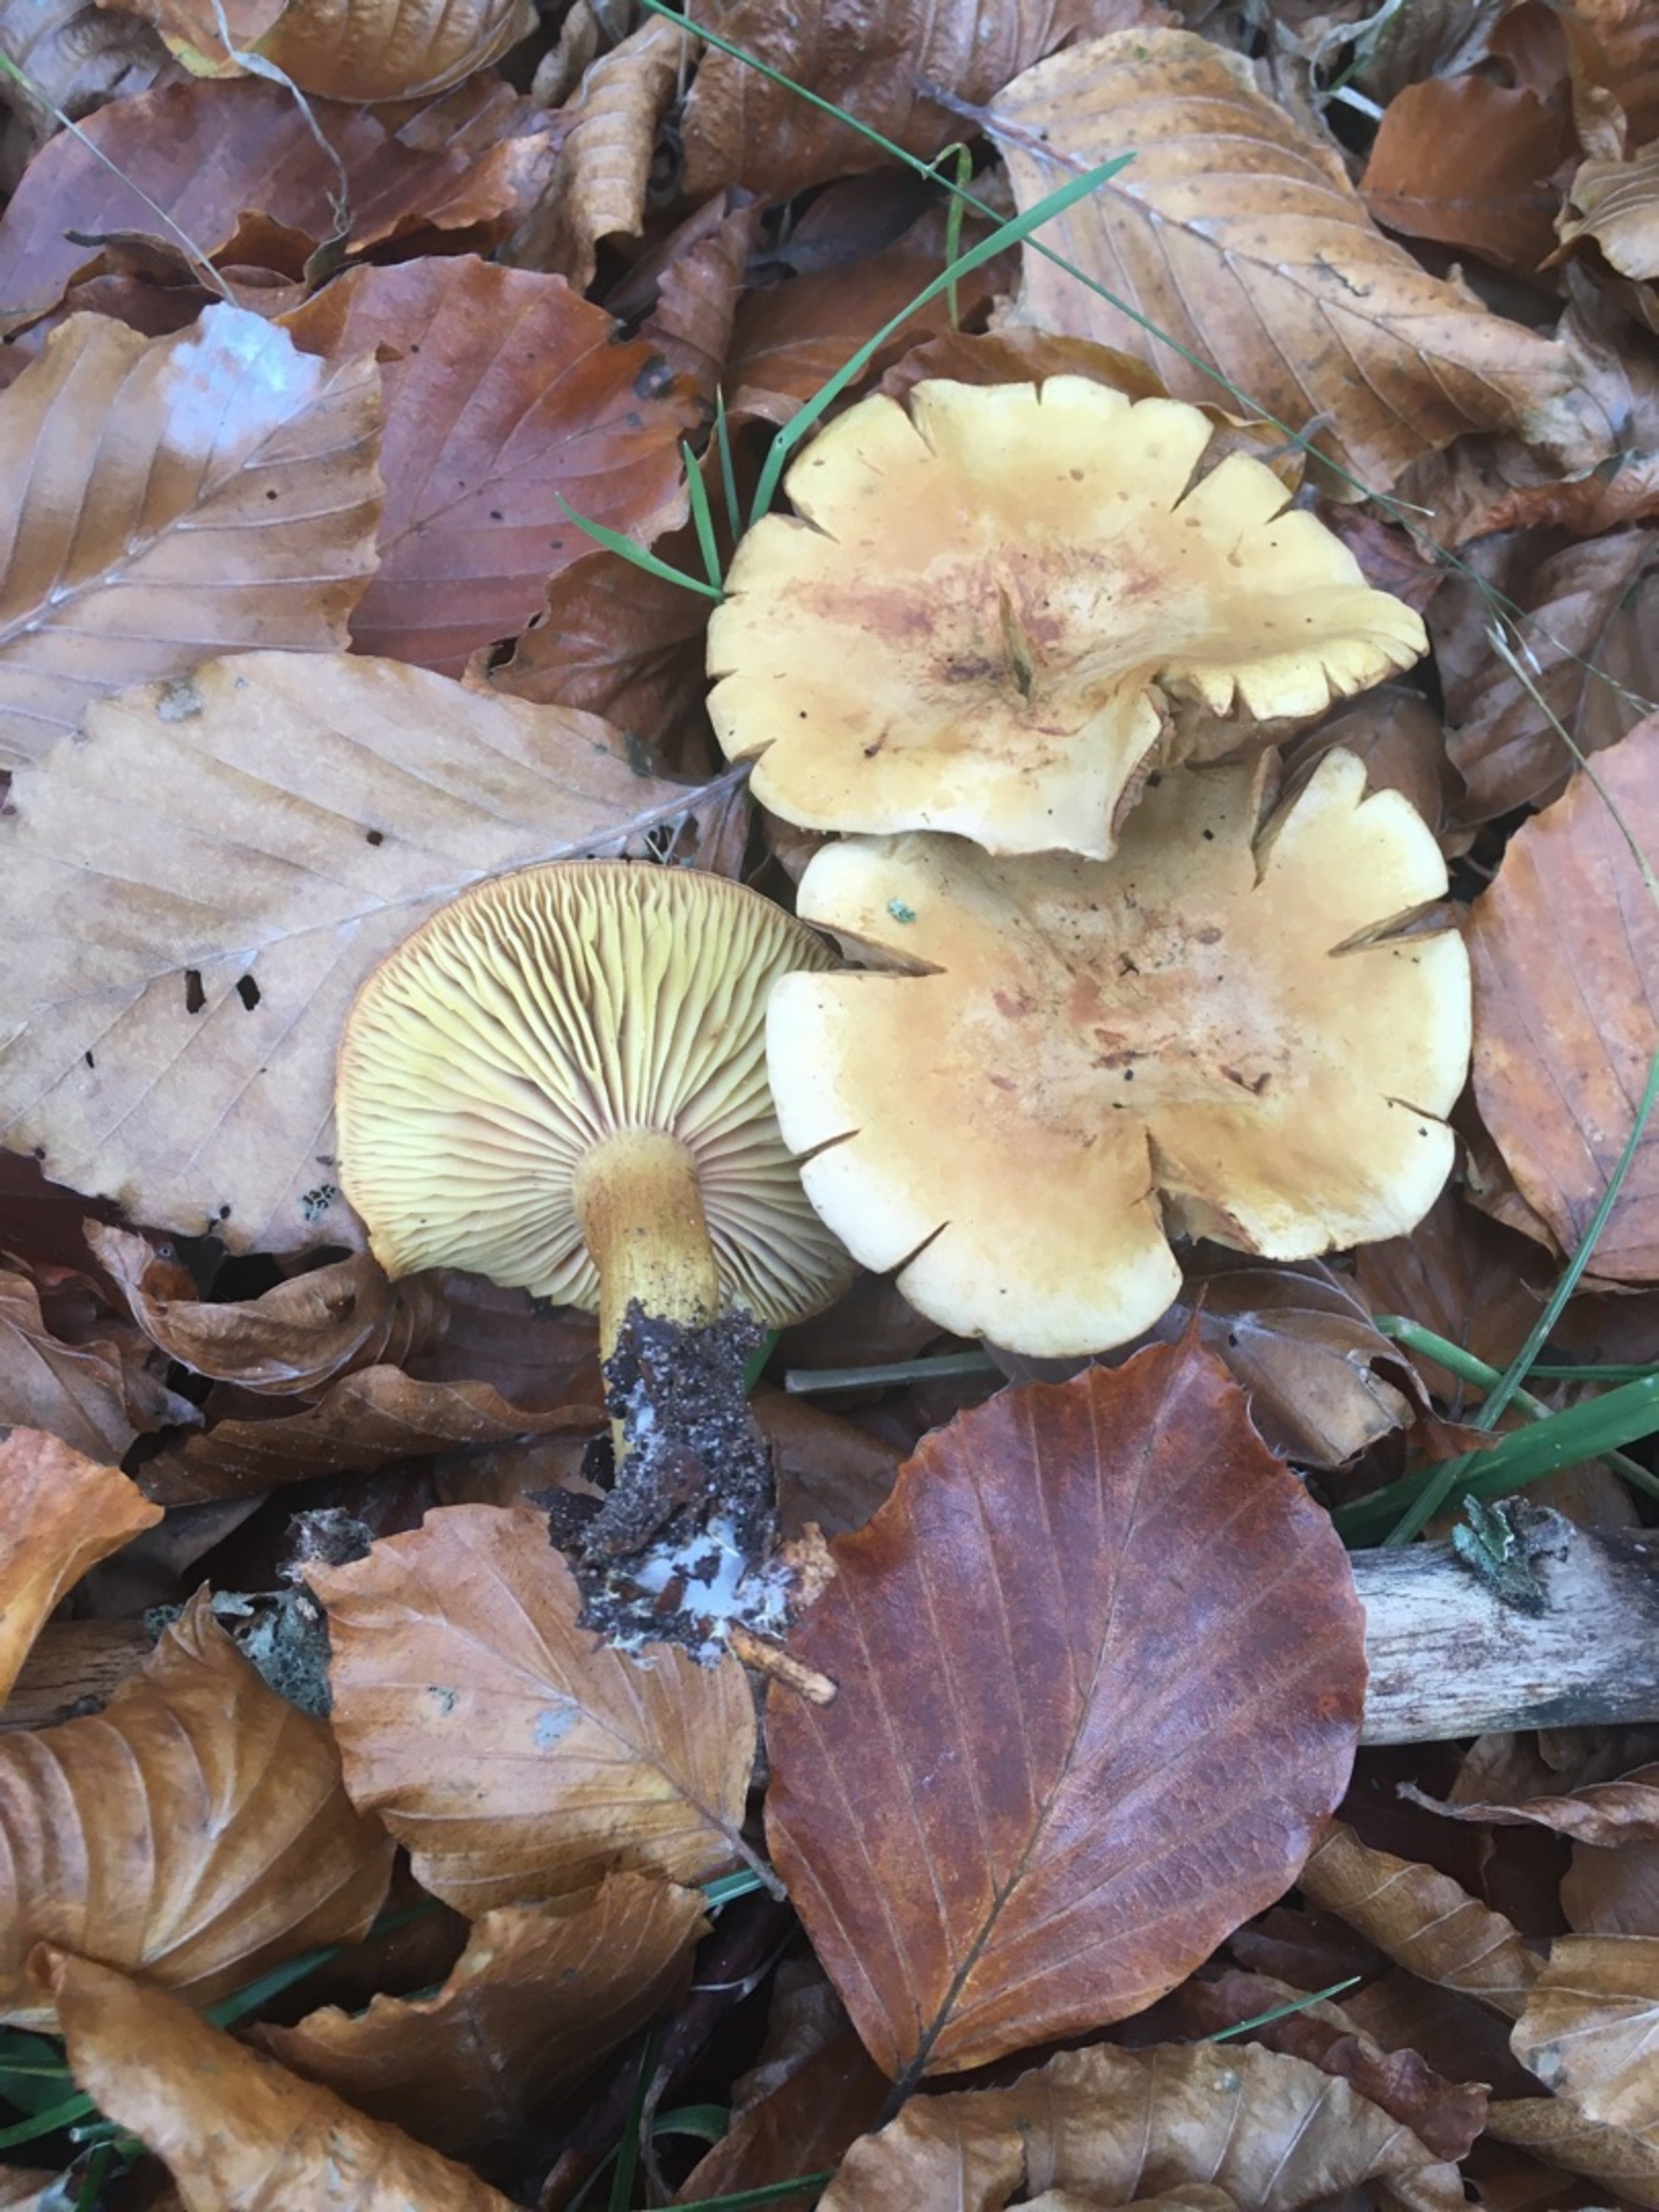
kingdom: Fungi
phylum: Basidiomycota
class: Agaricomycetes
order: Agaricales
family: Tricholomataceae
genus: Tricholoma
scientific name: Tricholoma sulphureum
